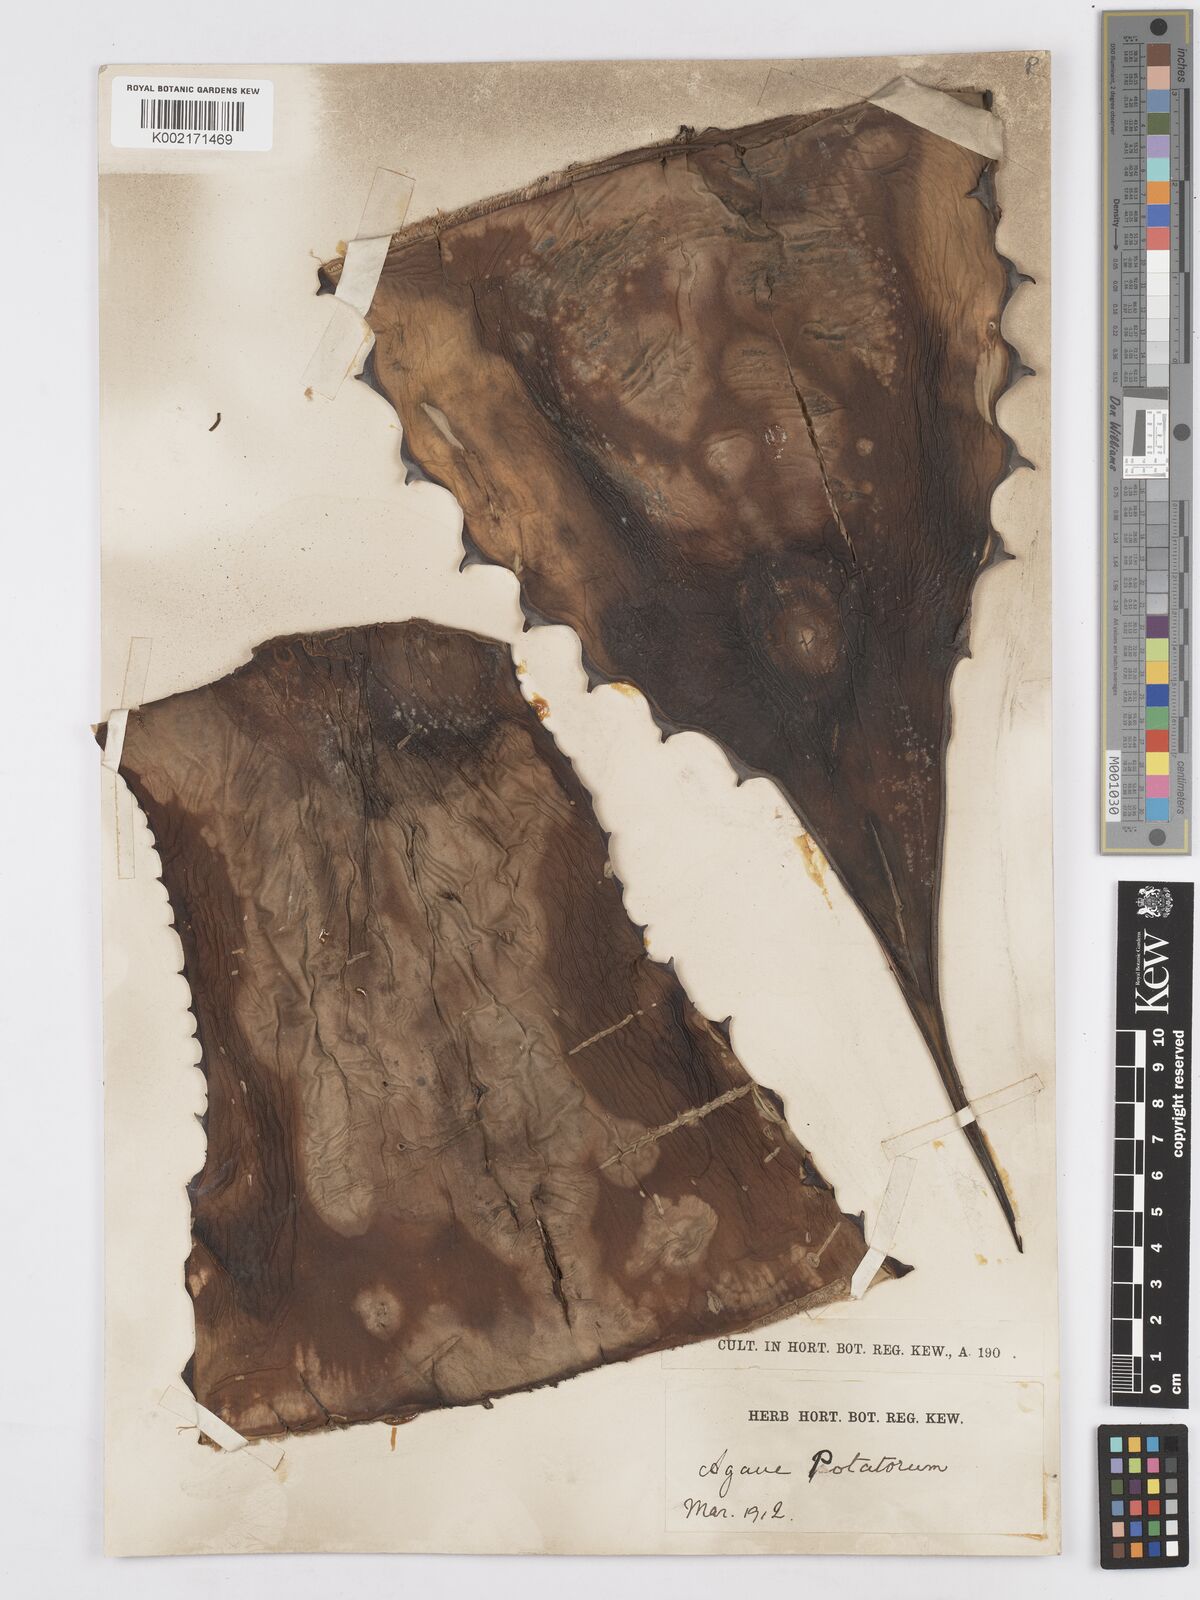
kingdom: Plantae
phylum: Tracheophyta
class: Liliopsida
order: Asparagales
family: Asparagaceae
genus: Agave
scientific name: Agave potatorum
